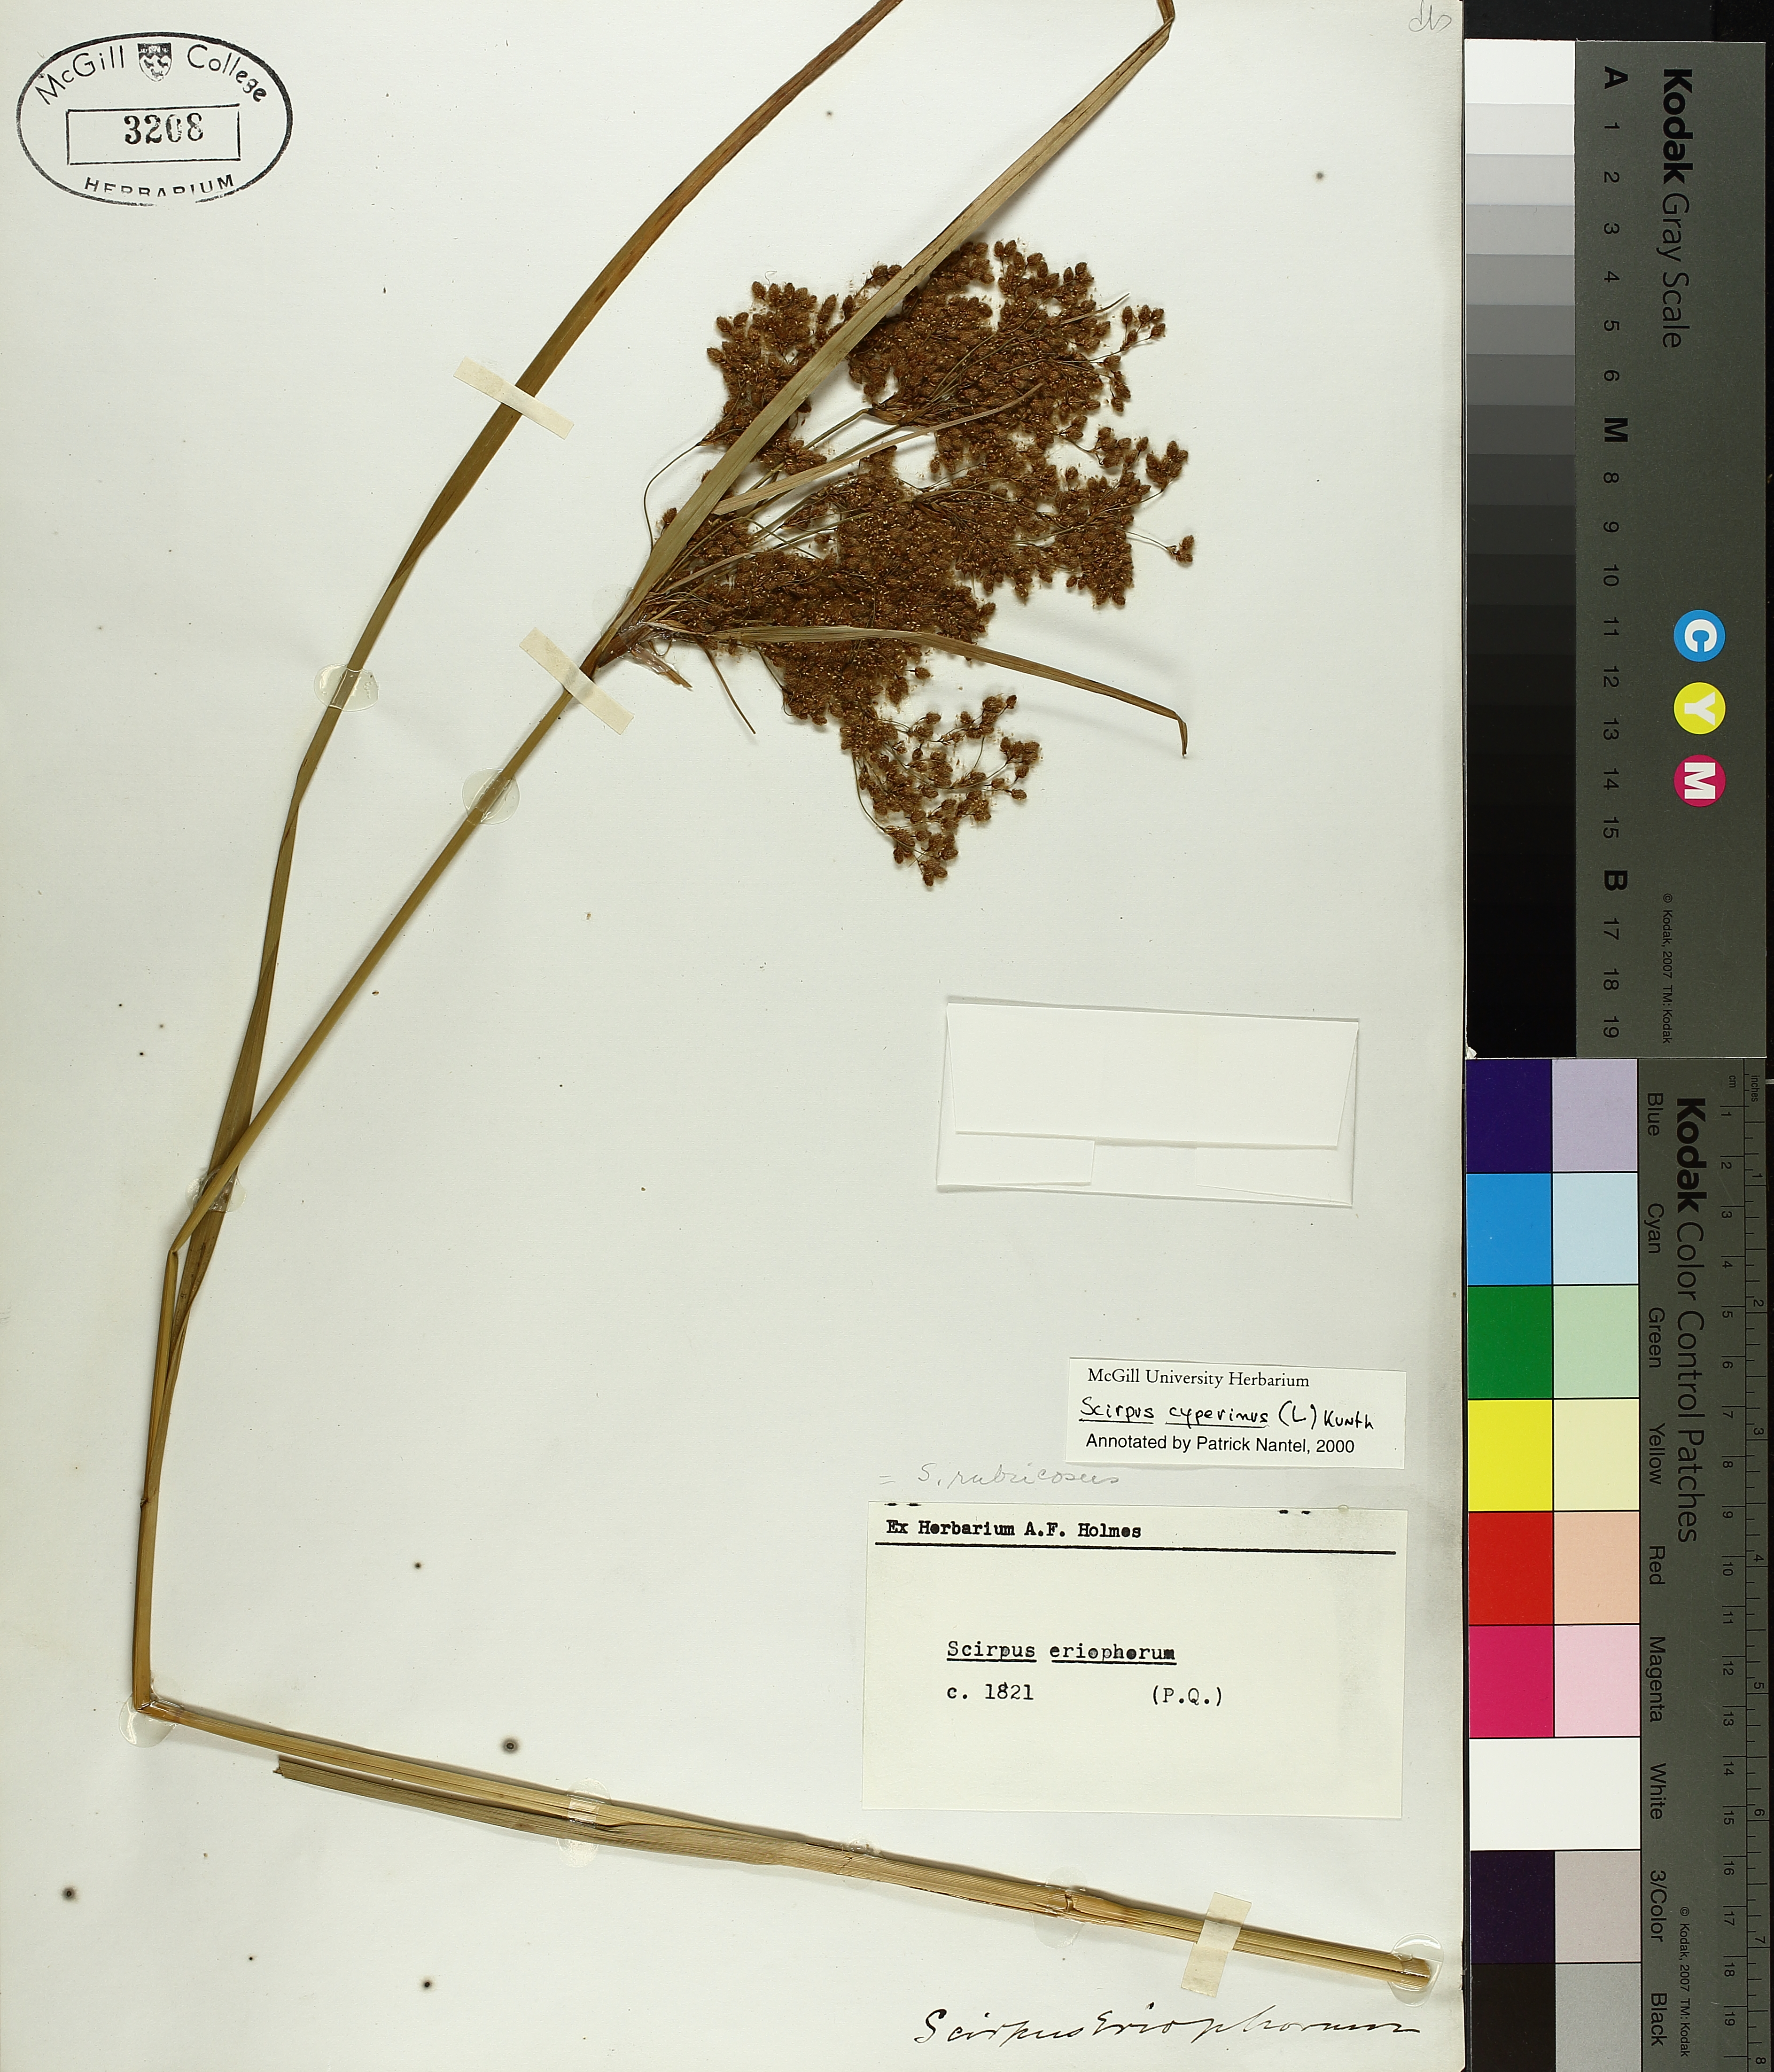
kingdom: Plantae
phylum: Tracheophyta
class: Liliopsida
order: Poales
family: Cyperaceae
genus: Scirpus
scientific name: Scirpus cyperinus
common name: Black-sheathed bulrush
